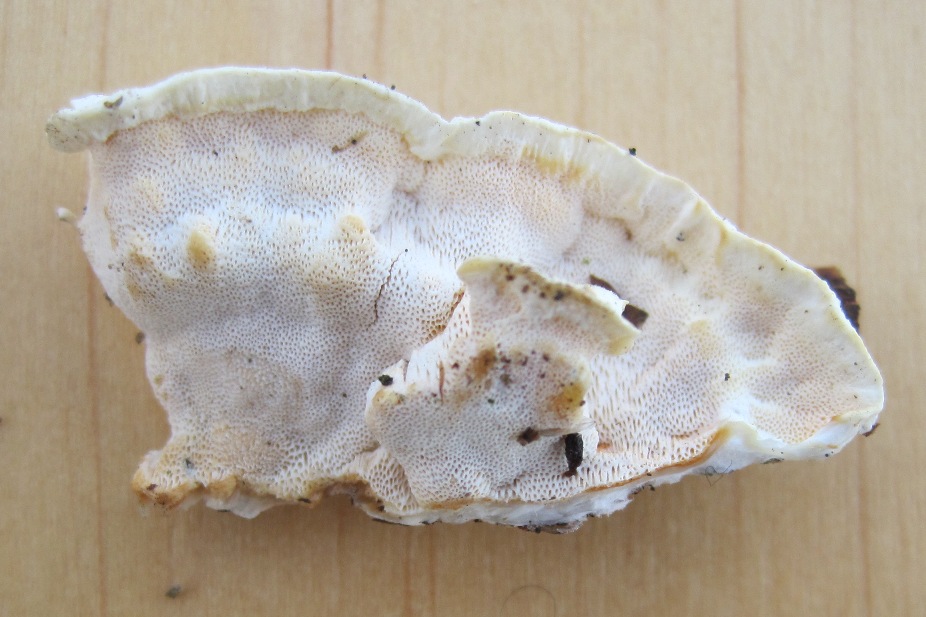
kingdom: Fungi
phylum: Basidiomycota
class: Agaricomycetes
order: Polyporales
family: Incrustoporiaceae
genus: Skeletocutis
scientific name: Skeletocutis amorpha
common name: orange krystalporesvamp
